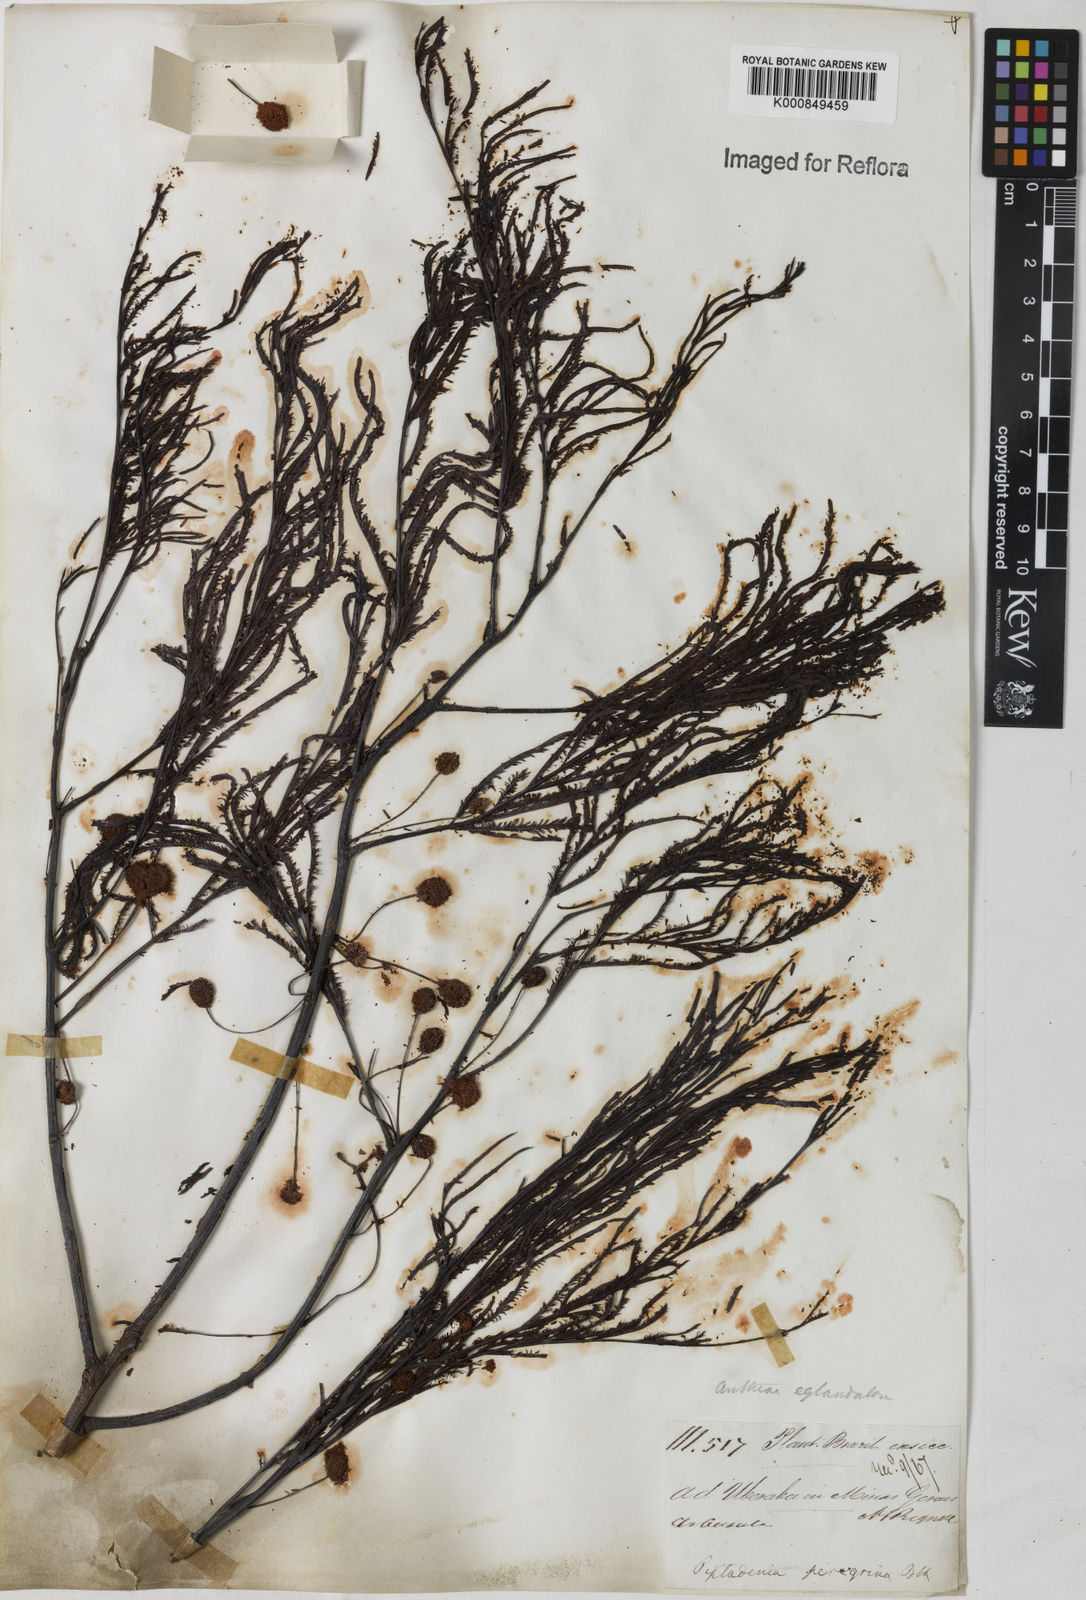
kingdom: Plantae
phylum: Tracheophyta
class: Magnoliopsida
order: Fabales
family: Fabaceae
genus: Anadenanthera
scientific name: Anadenanthera peregrina
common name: Cohoba
